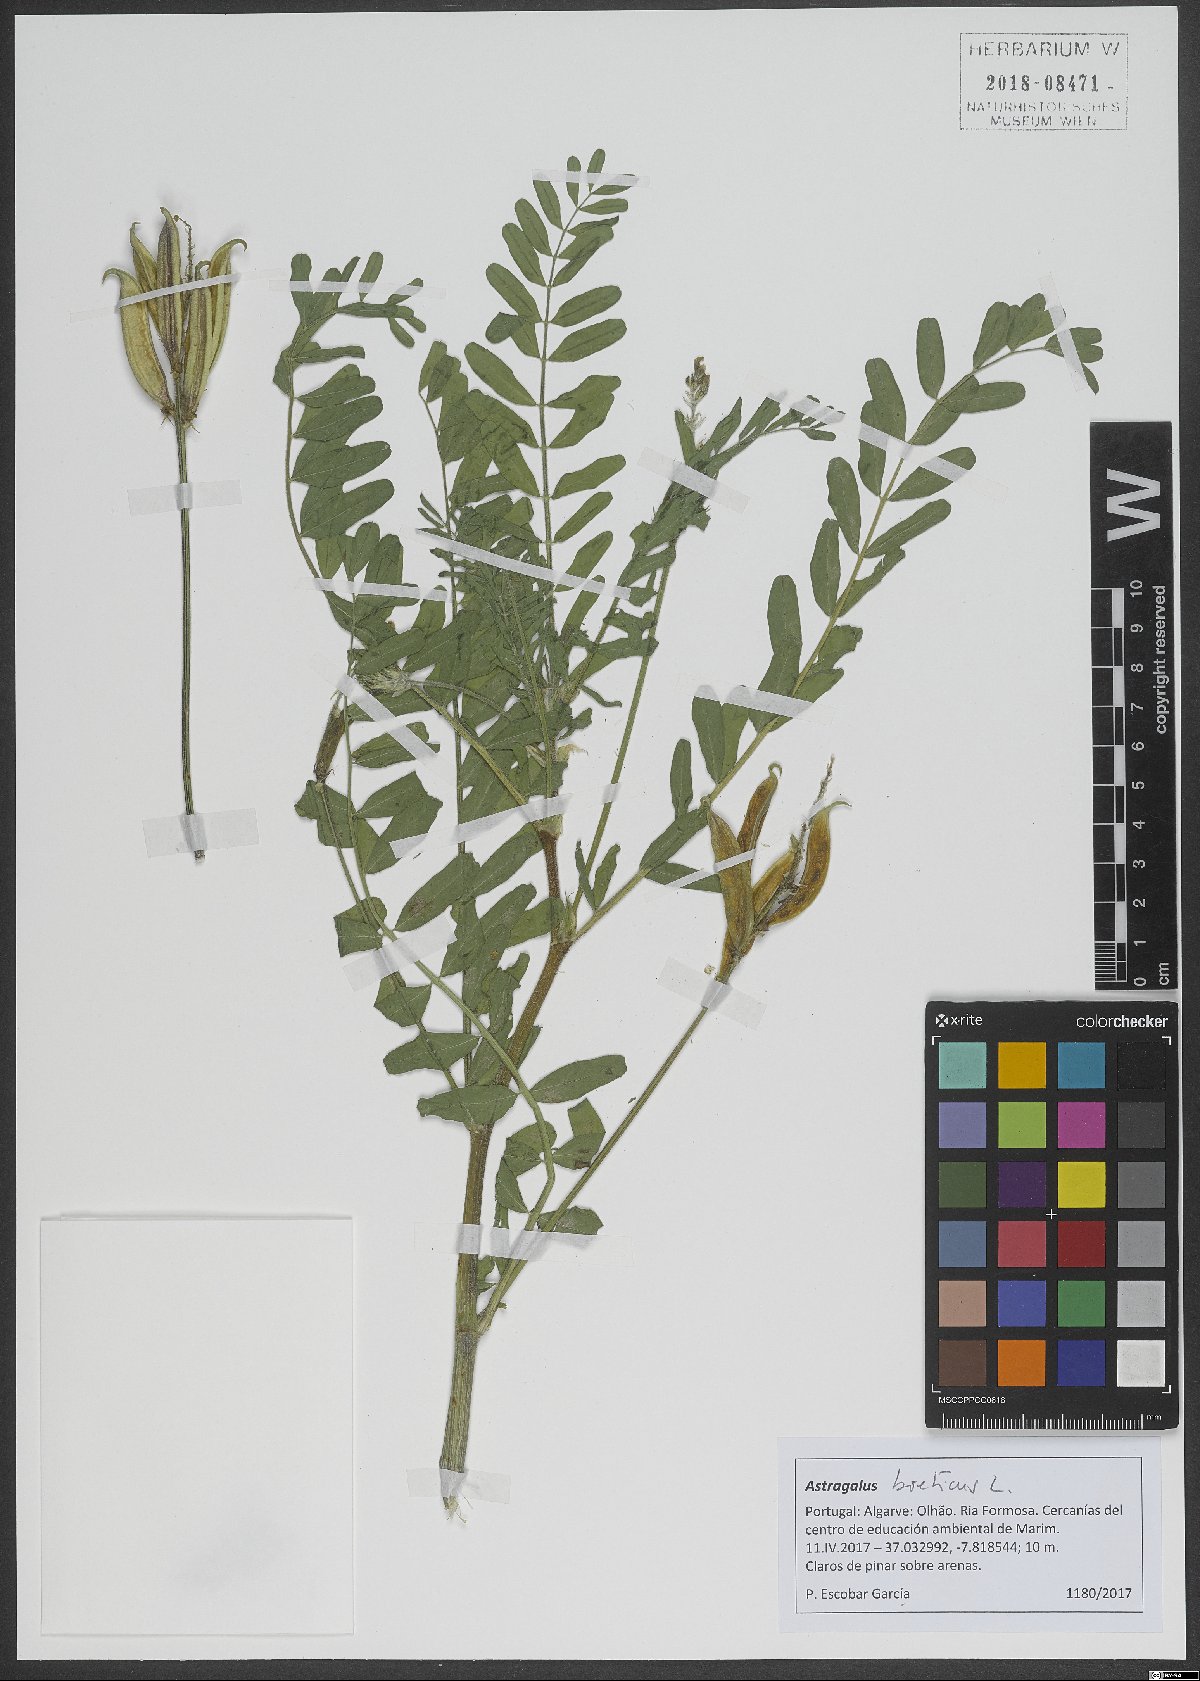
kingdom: Plantae
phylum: Tracheophyta
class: Magnoliopsida
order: Fabales
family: Fabaceae
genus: Astragalus
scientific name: Astragalus boeticus
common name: Milk-vetch
